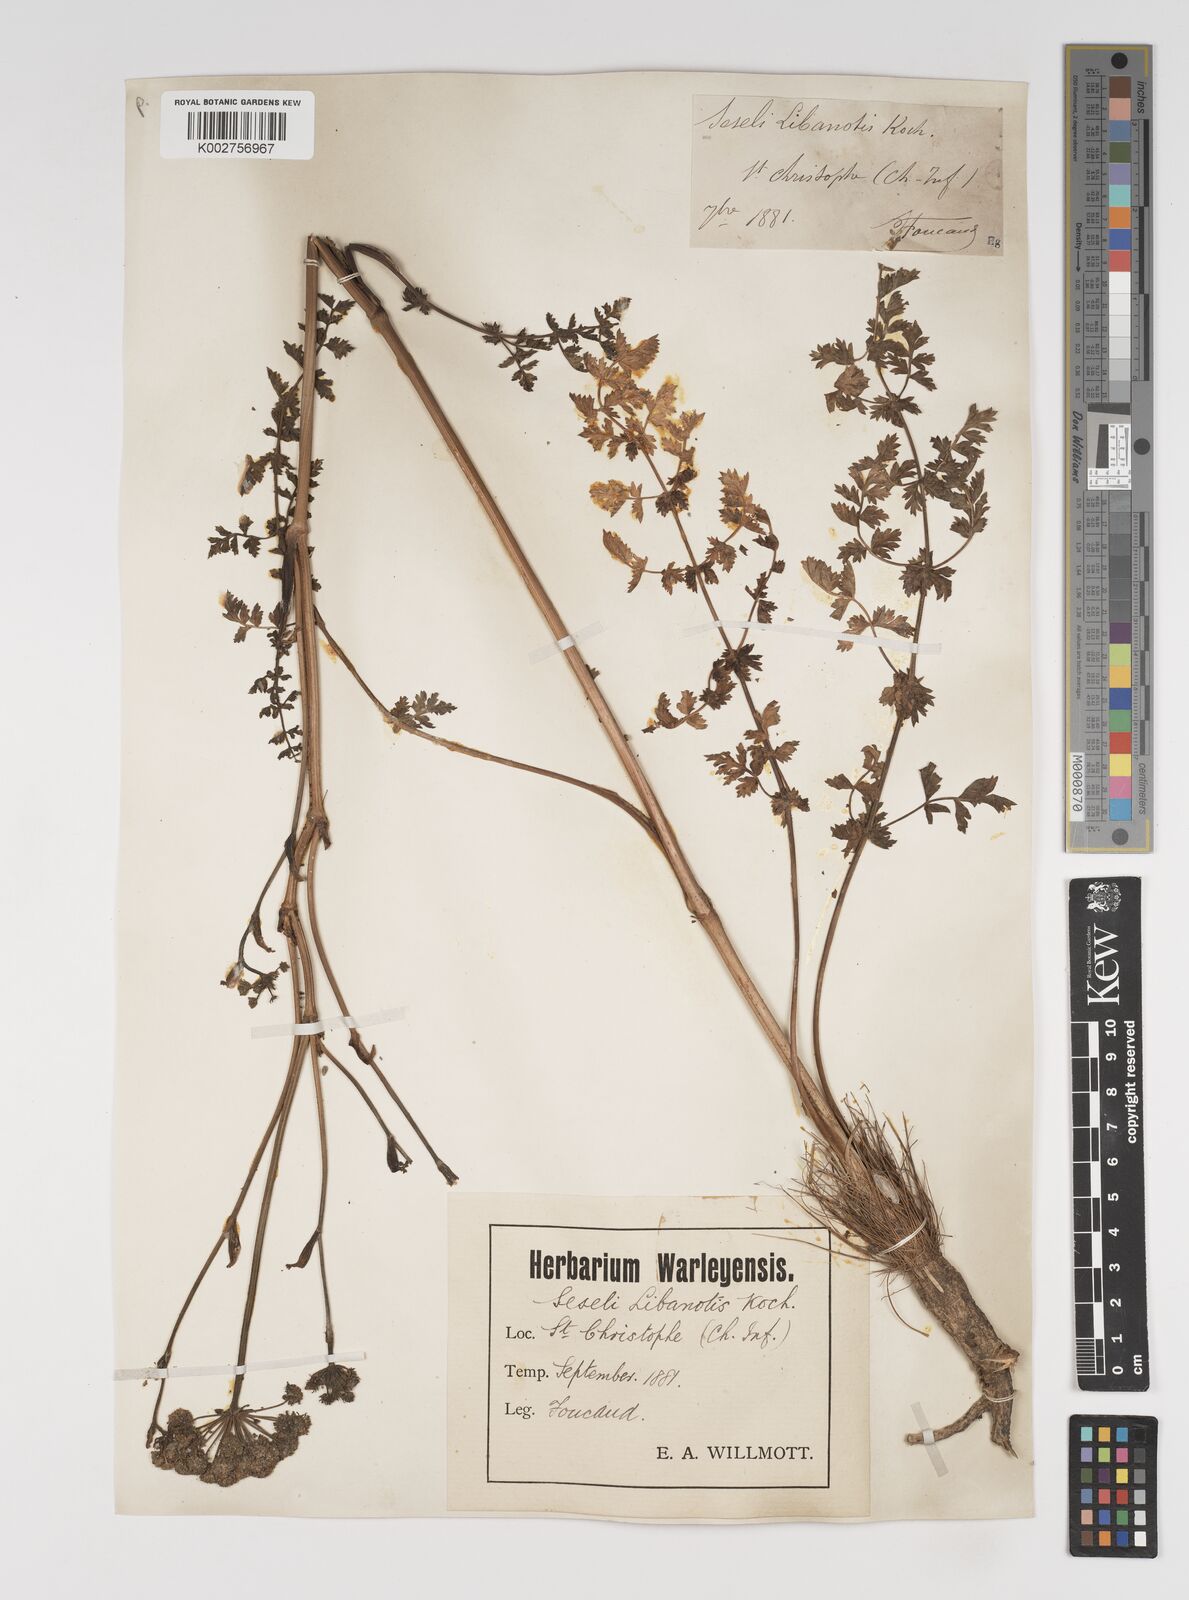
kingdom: Plantae
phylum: Tracheophyta
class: Magnoliopsida
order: Apiales
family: Apiaceae
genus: Seseli
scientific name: Seseli libanotis
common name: Mooncarrot
